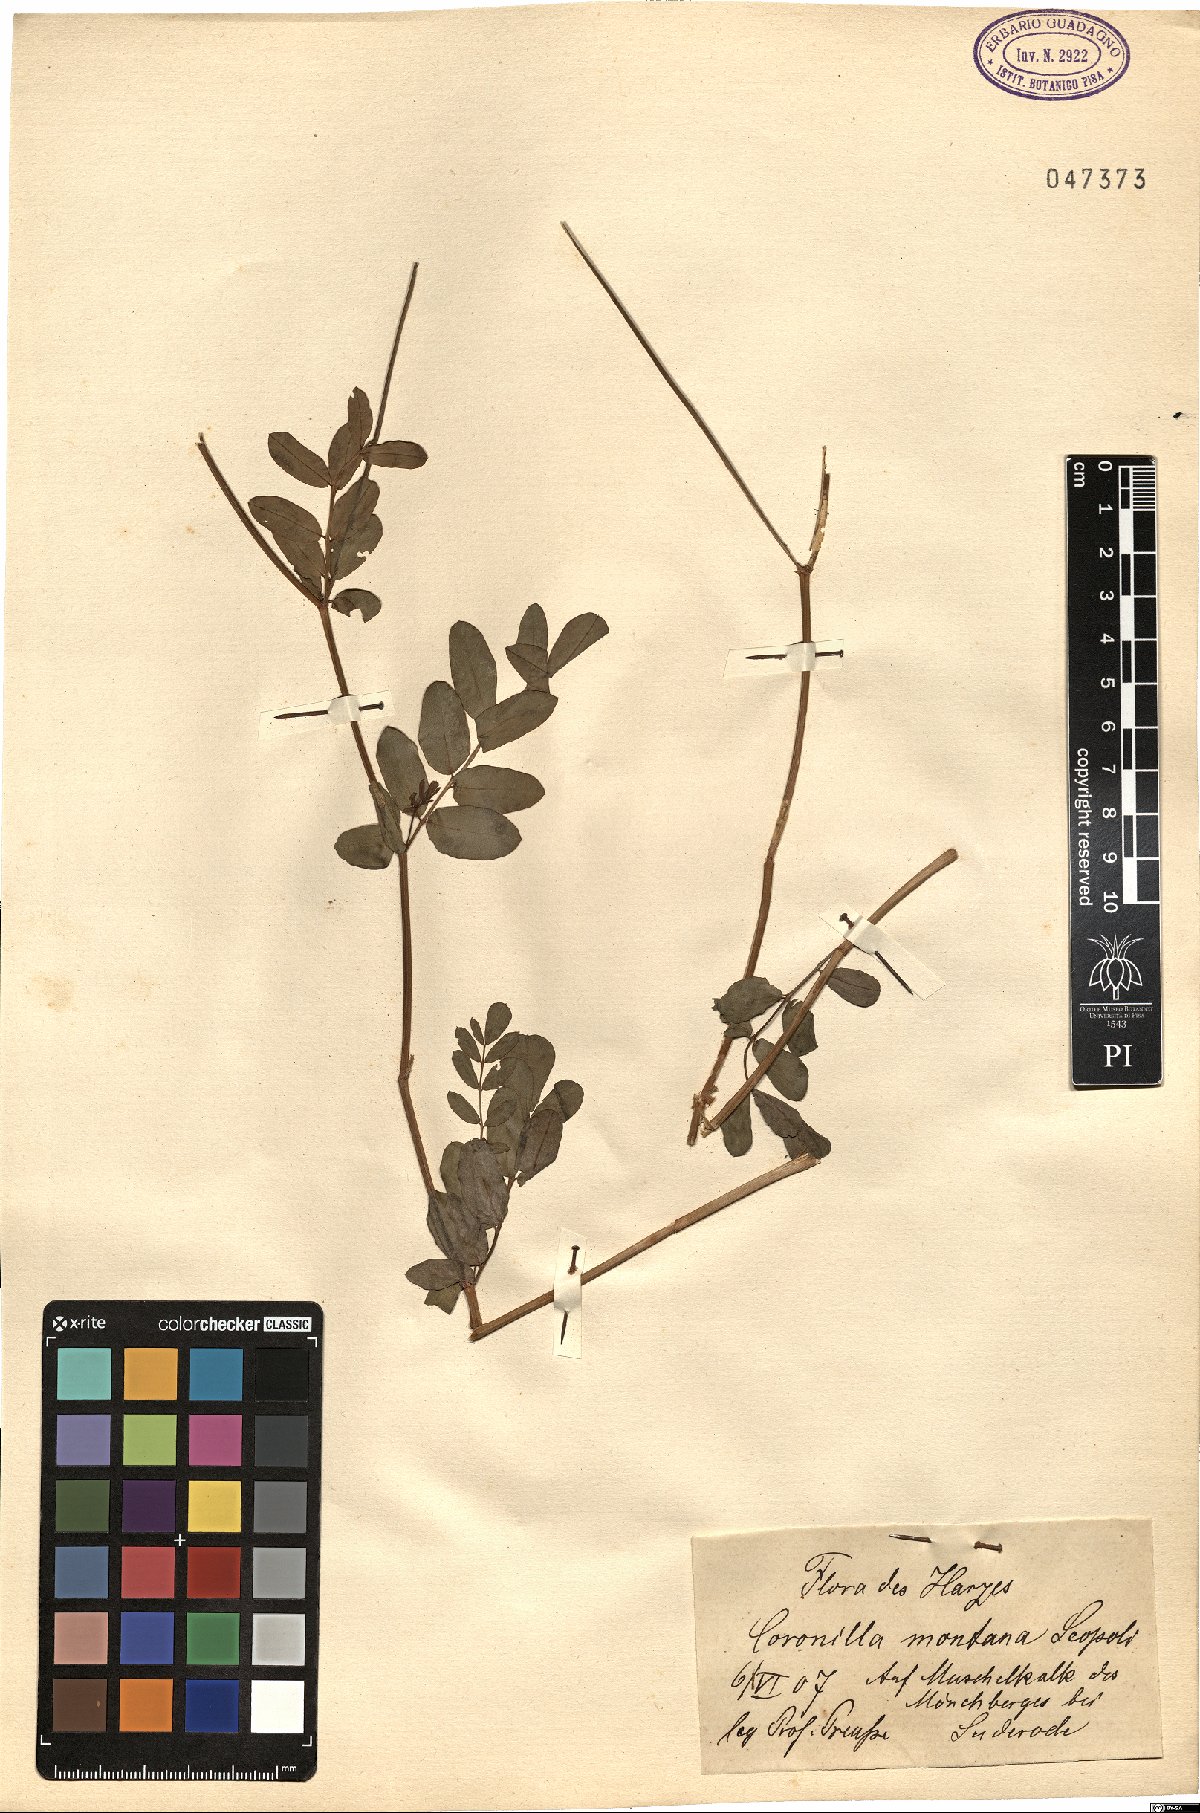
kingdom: Plantae
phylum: Tracheophyta
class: Magnoliopsida
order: Fabales
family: Fabaceae
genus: Coronilla
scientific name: Coronilla coronata
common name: Scorpion-vetch
